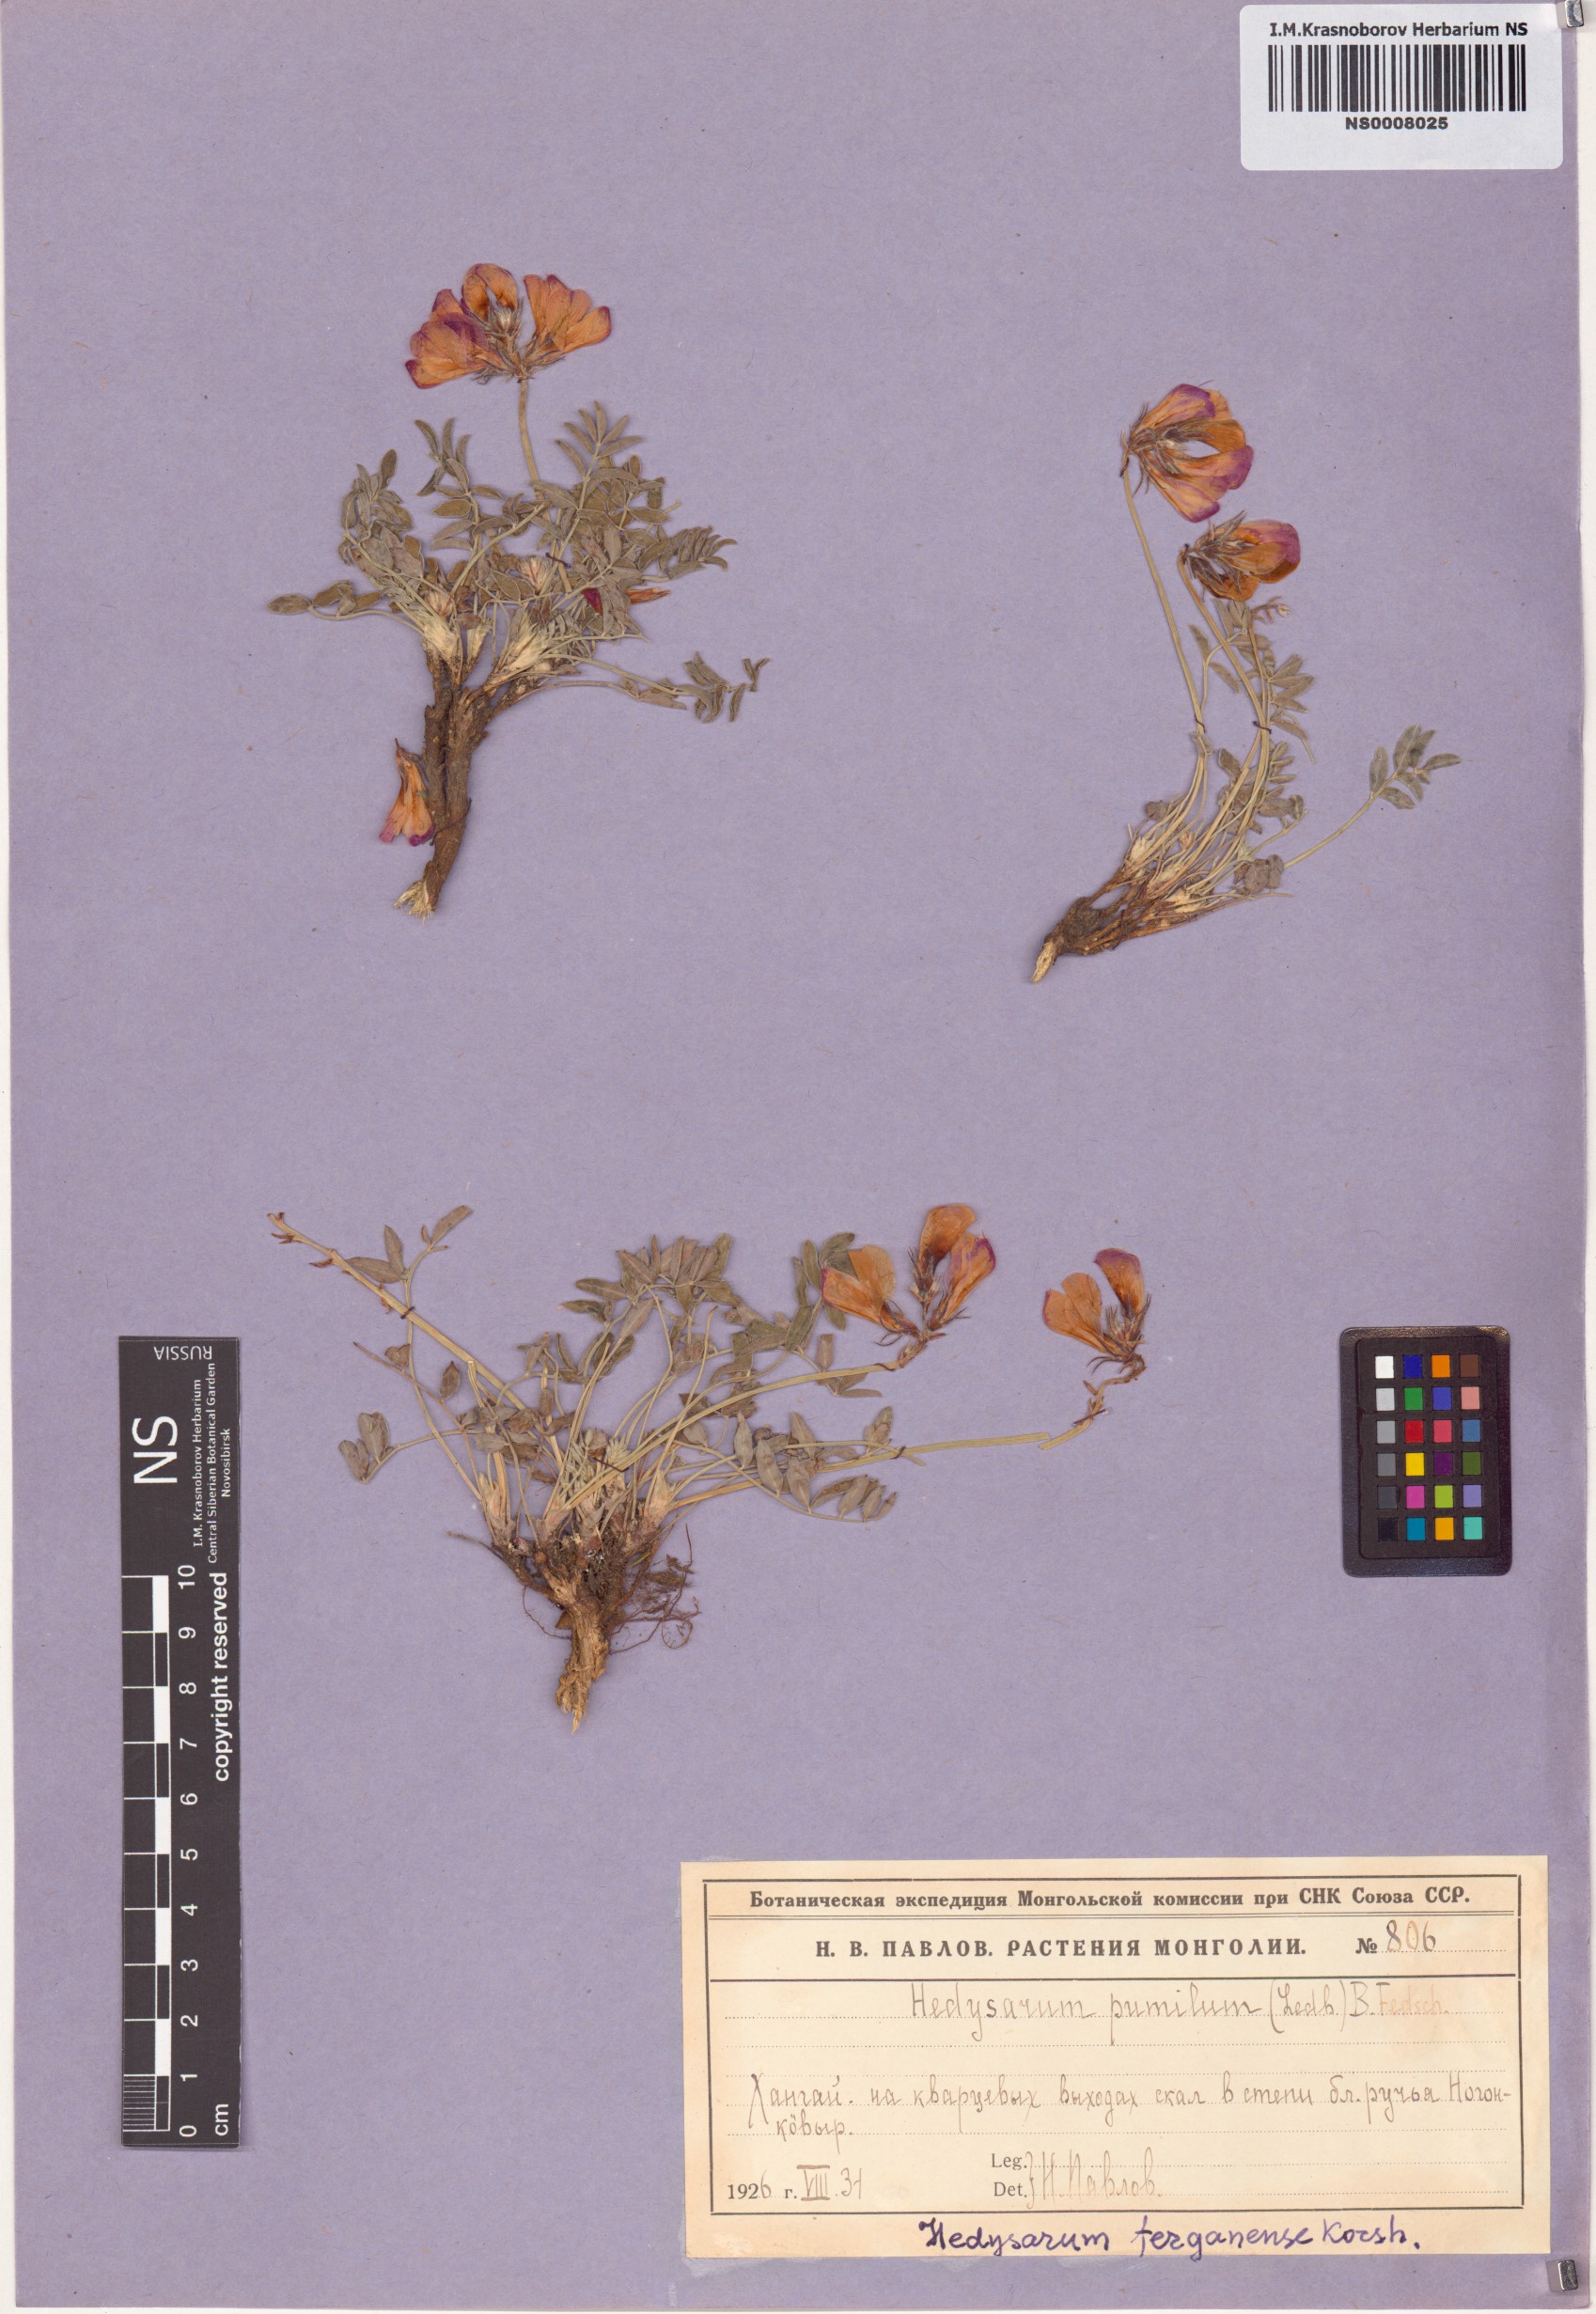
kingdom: Plantae
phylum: Tracheophyta
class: Magnoliopsida
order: Fabales
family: Fabaceae
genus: Hedysarum
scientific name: Hedysarum ferganense
